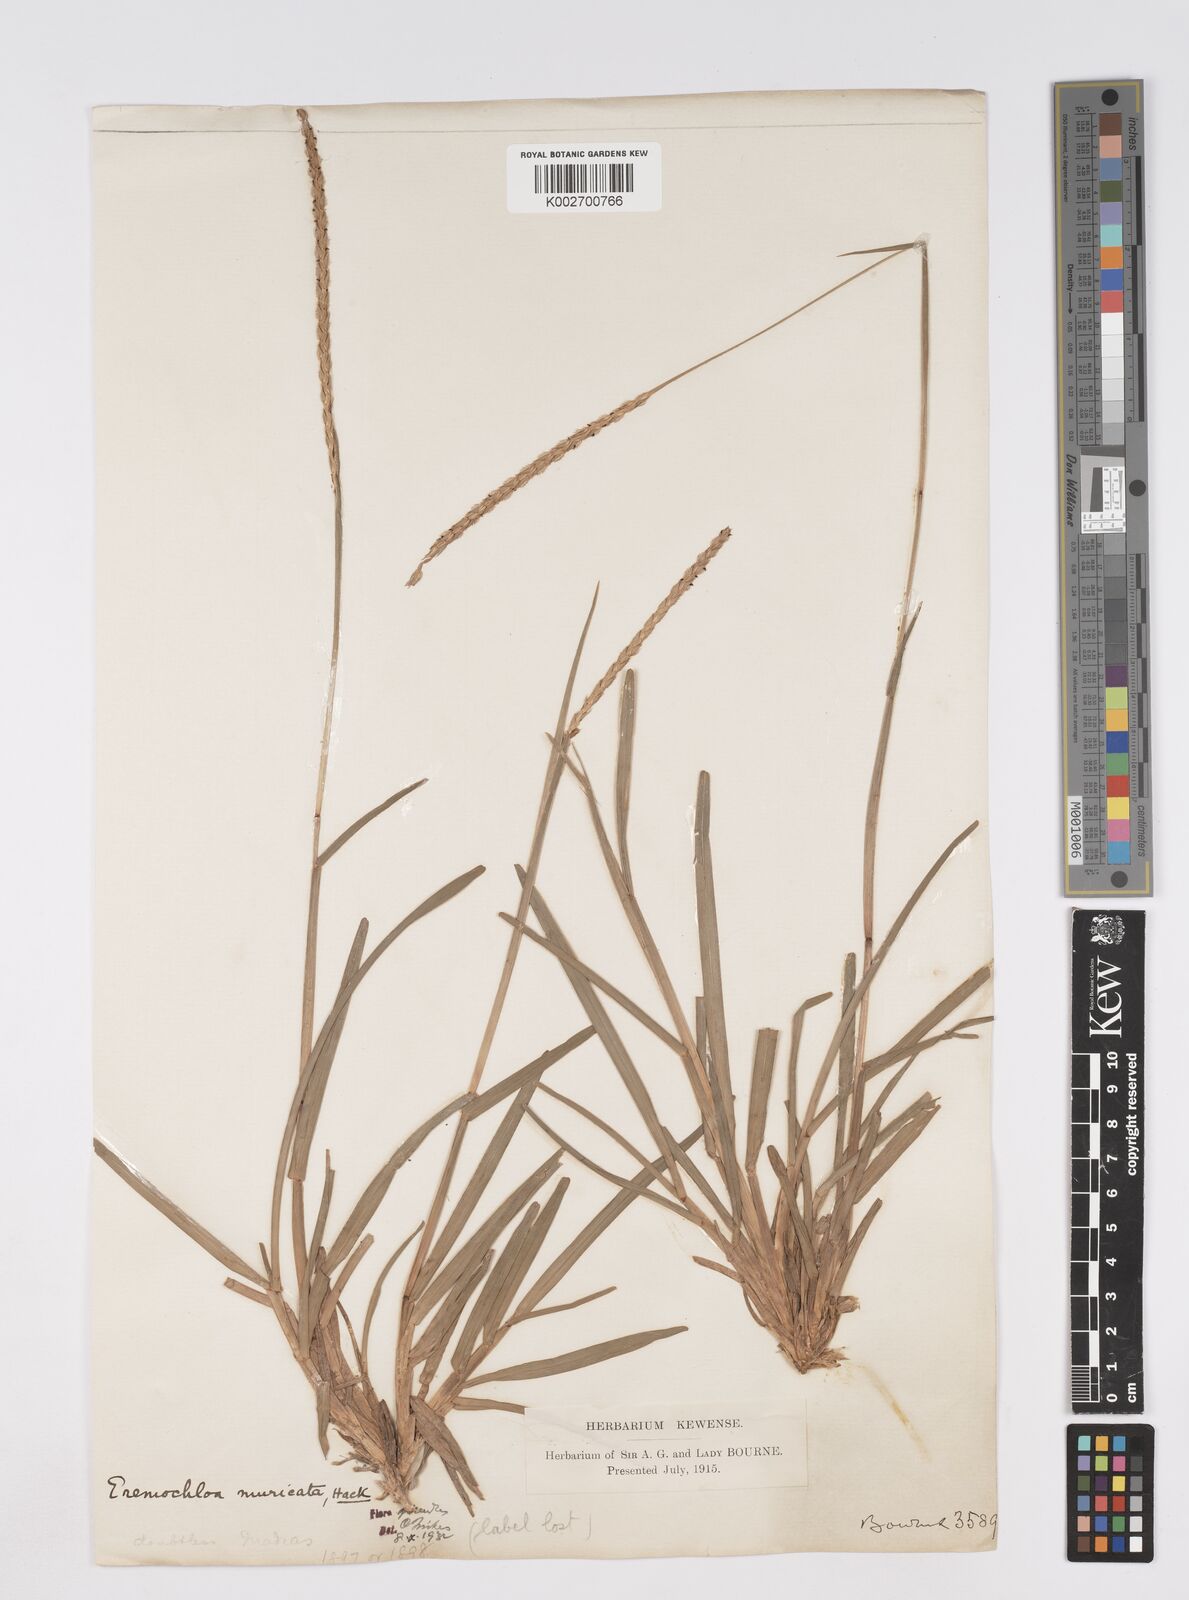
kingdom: Plantae
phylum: Tracheophyta
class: Liliopsida
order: Poales
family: Poaceae
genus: Eremochloa
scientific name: Eremochloa muricata
